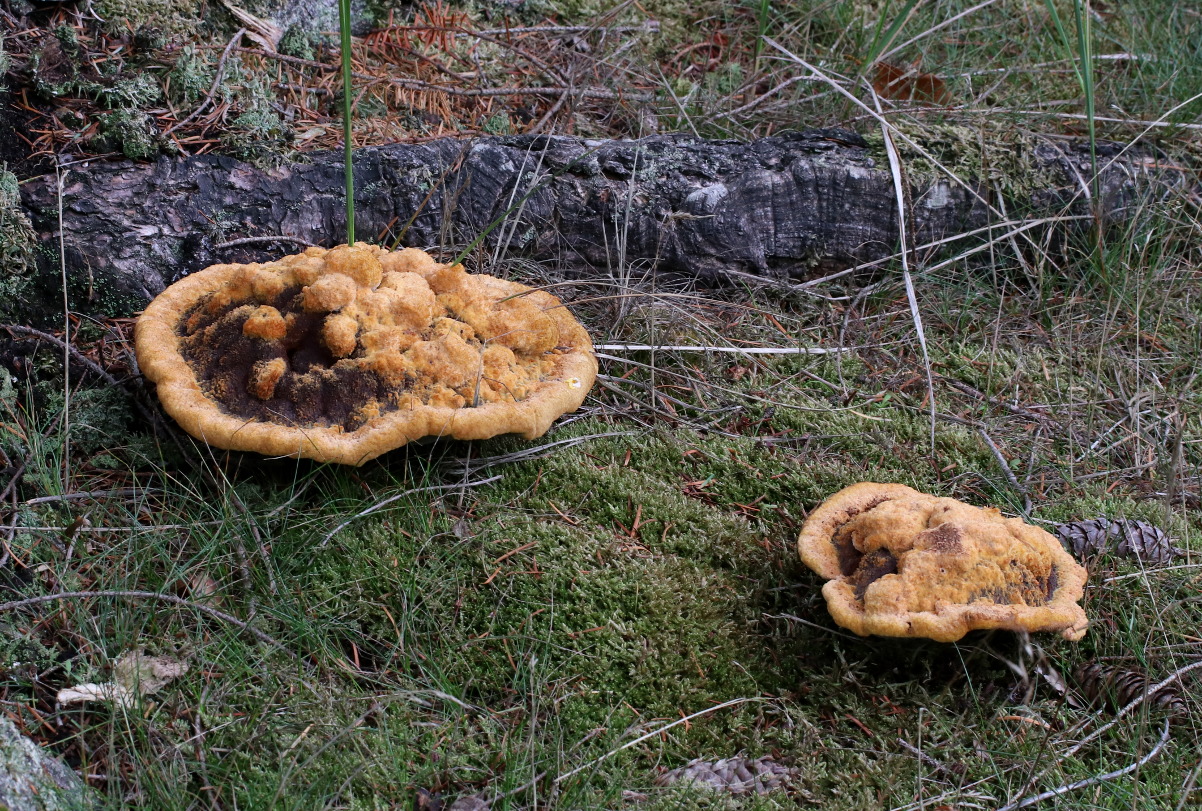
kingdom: Fungi
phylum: Basidiomycota
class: Agaricomycetes
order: Polyporales
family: Laetiporaceae
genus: Phaeolus
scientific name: Phaeolus schweinitzii
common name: brunporesvamp
